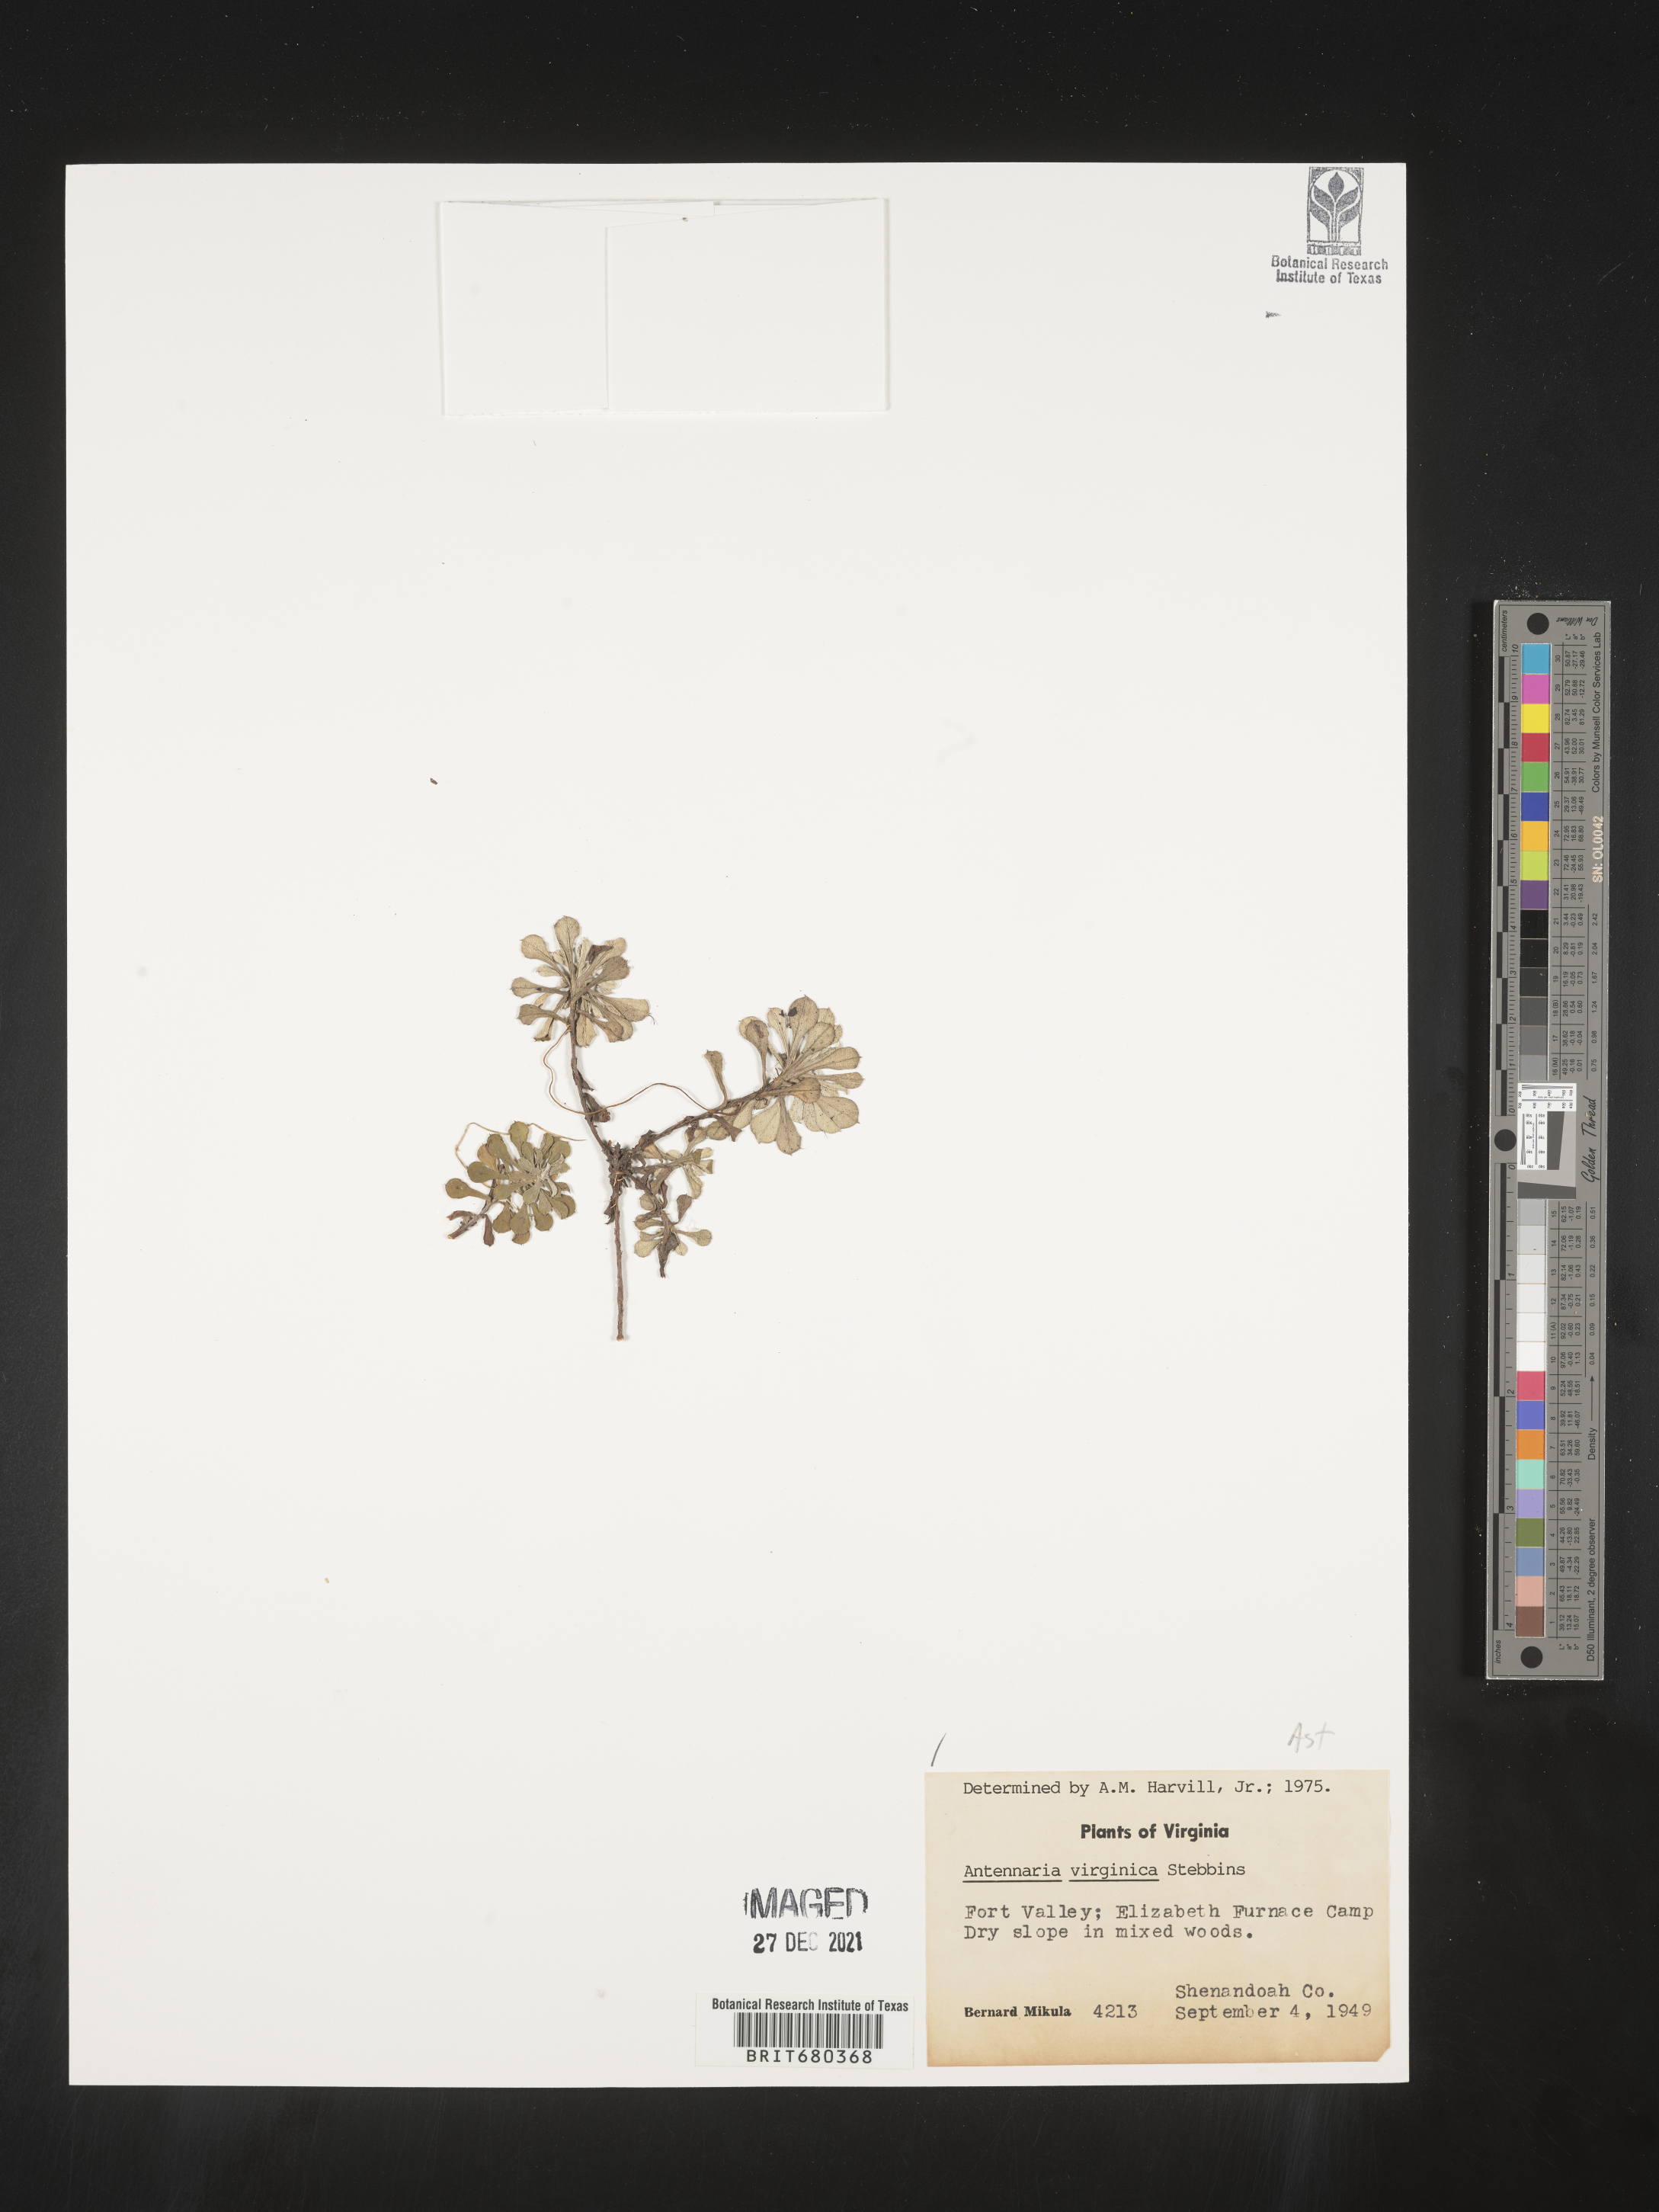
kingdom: Plantae
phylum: Tracheophyta
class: Magnoliopsida
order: Asterales
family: Asteraceae
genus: Antennaria
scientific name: Antennaria virginica
